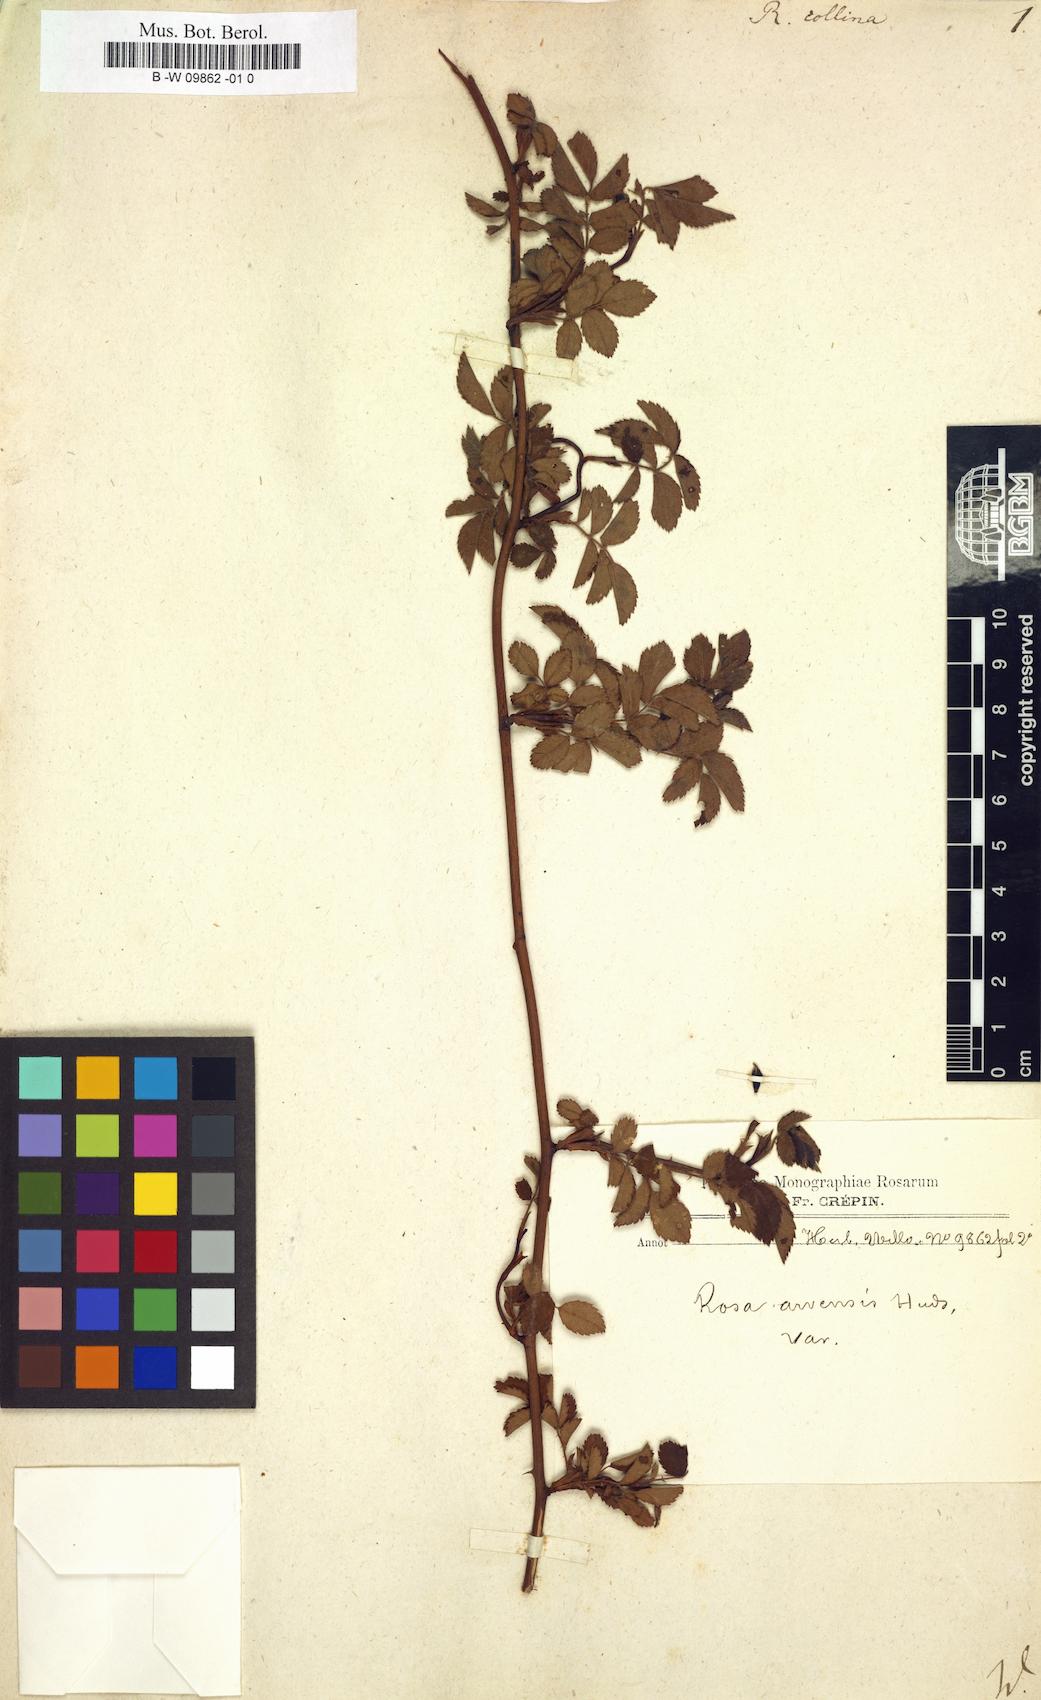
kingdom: Plantae
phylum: Tracheophyta
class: Magnoliopsida
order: Rosales
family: Rosaceae
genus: Rosa
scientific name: Rosa
